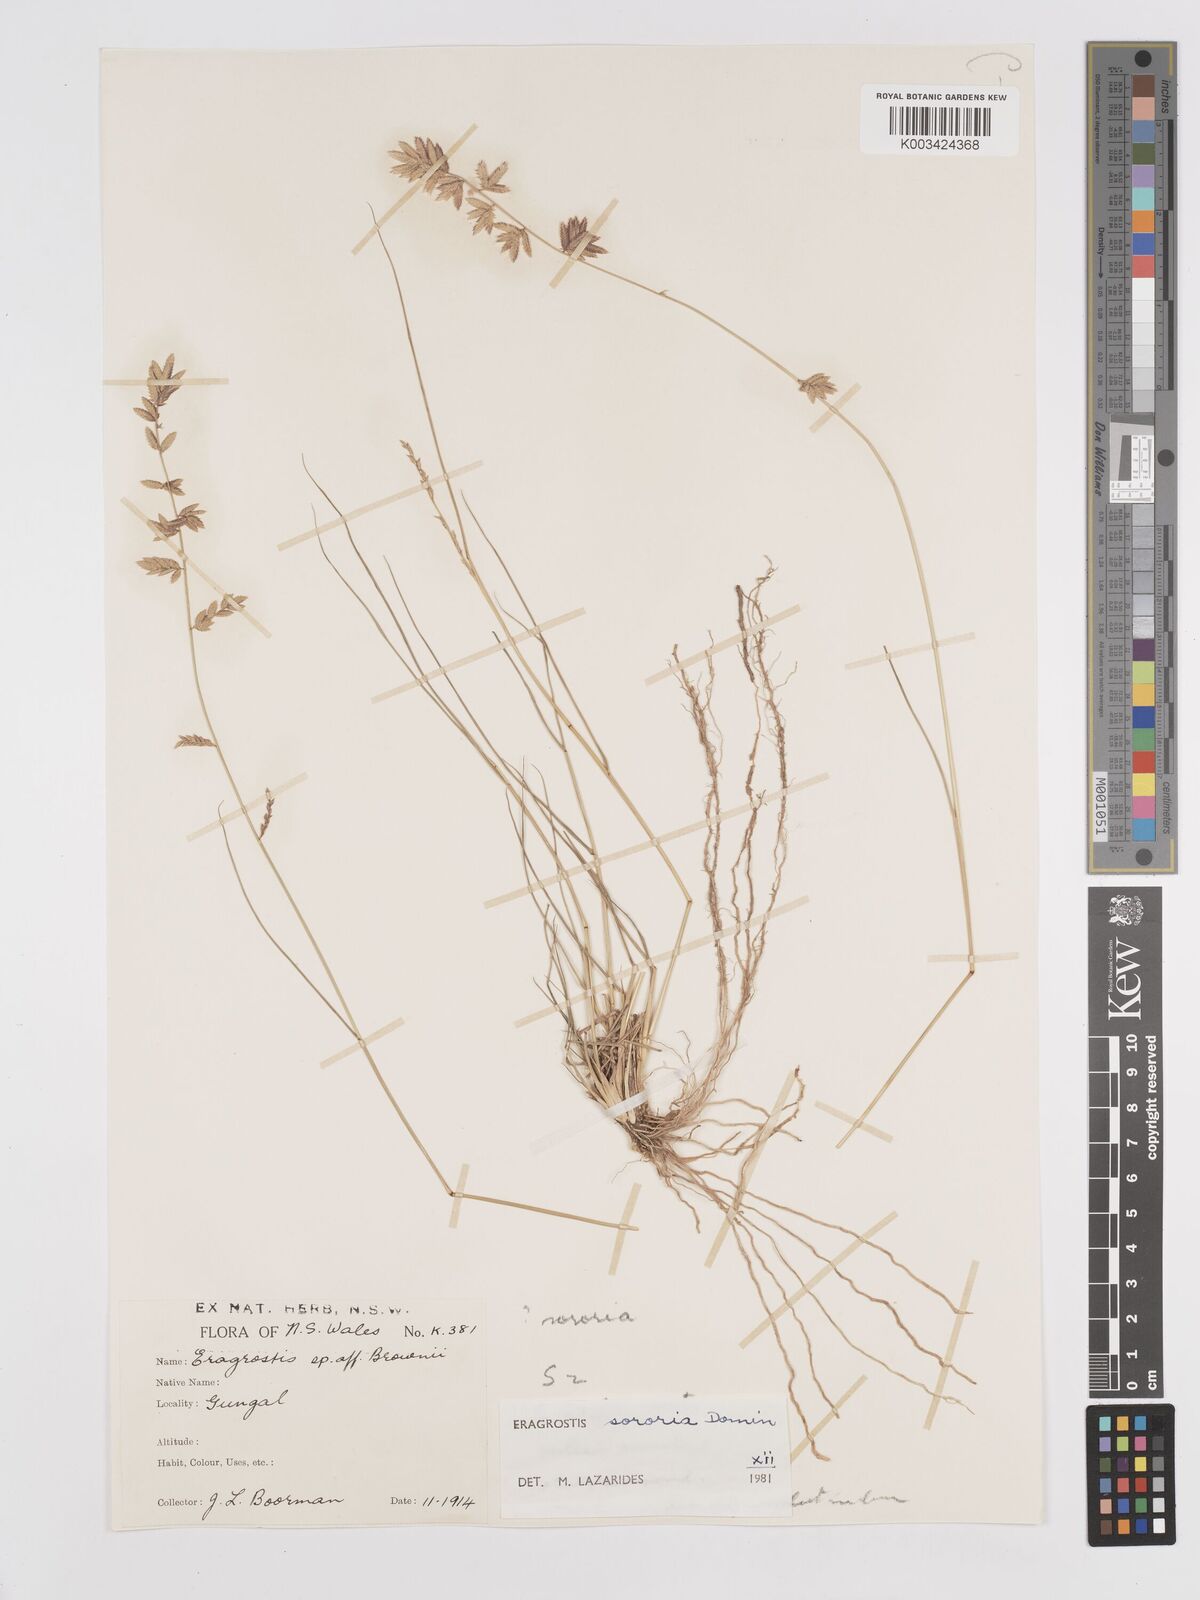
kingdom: Plantae
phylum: Tracheophyta
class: Liliopsida
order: Poales
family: Poaceae
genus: Eragrostis
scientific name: Eragrostis sororia
